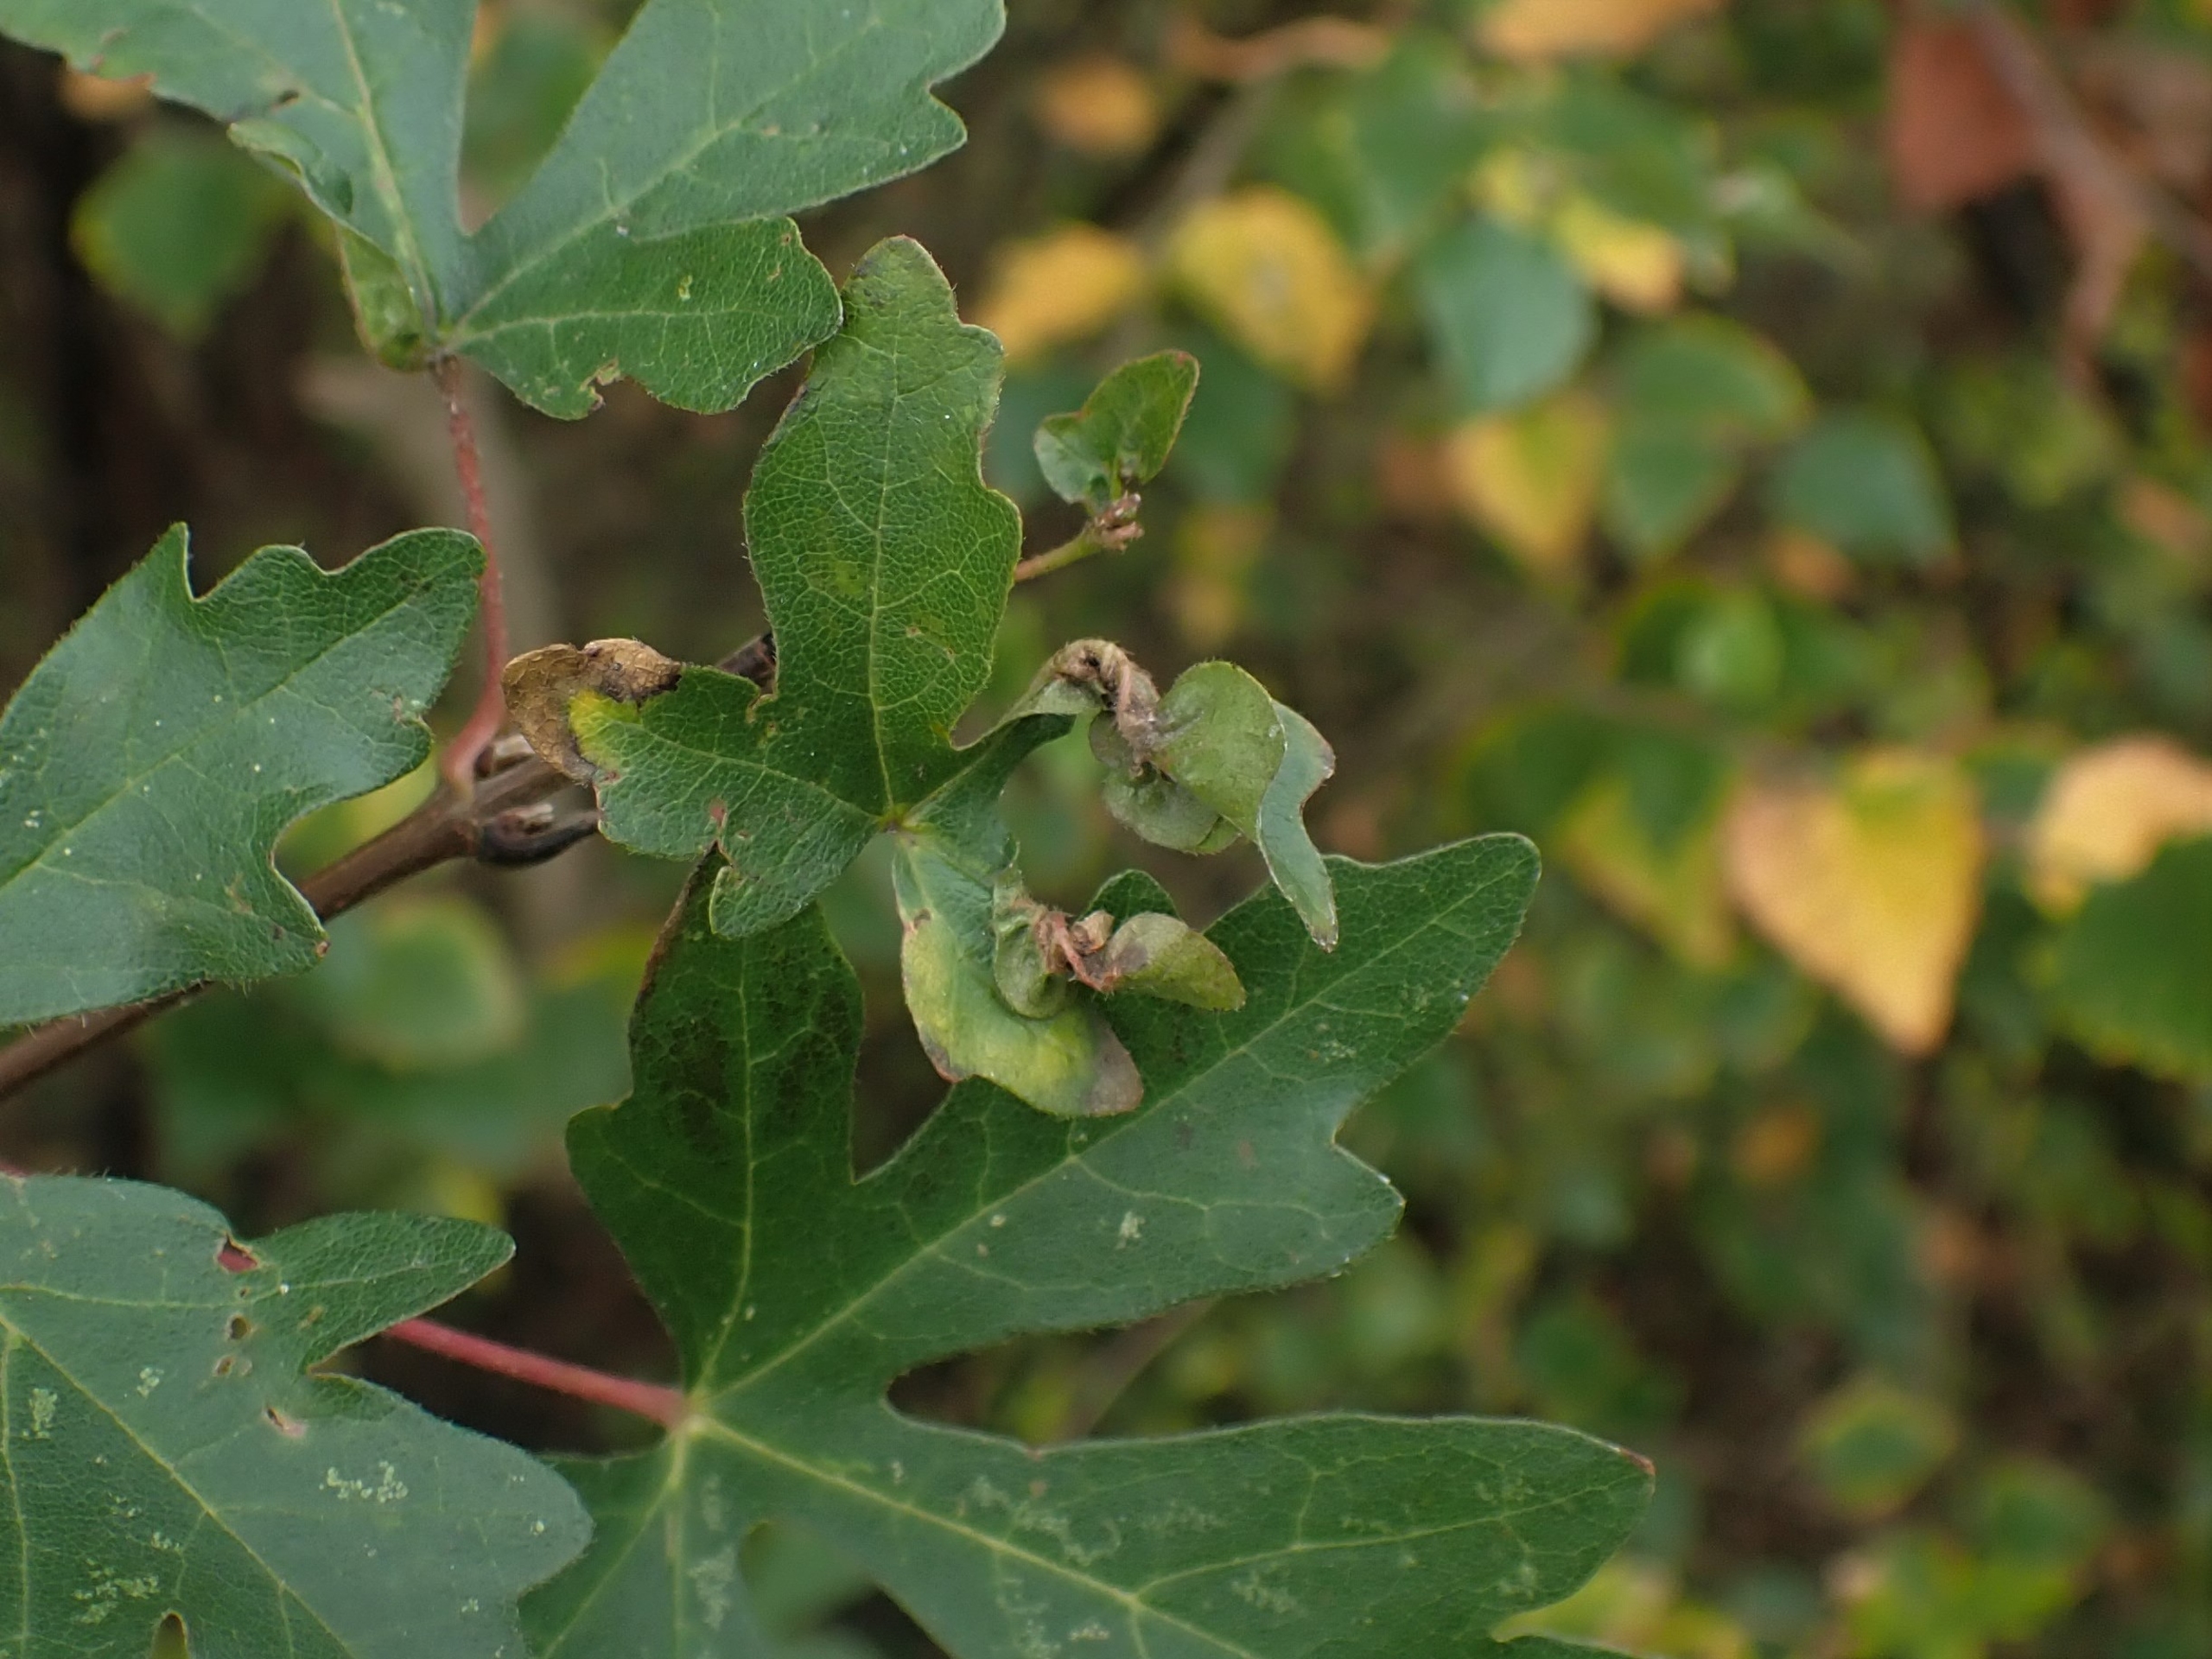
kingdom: Animalia
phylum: Arthropoda
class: Insecta
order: Diptera
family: Cecidomyiidae
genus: Dasineura
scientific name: Dasineura rubella
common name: Navrkrusegalmyg
